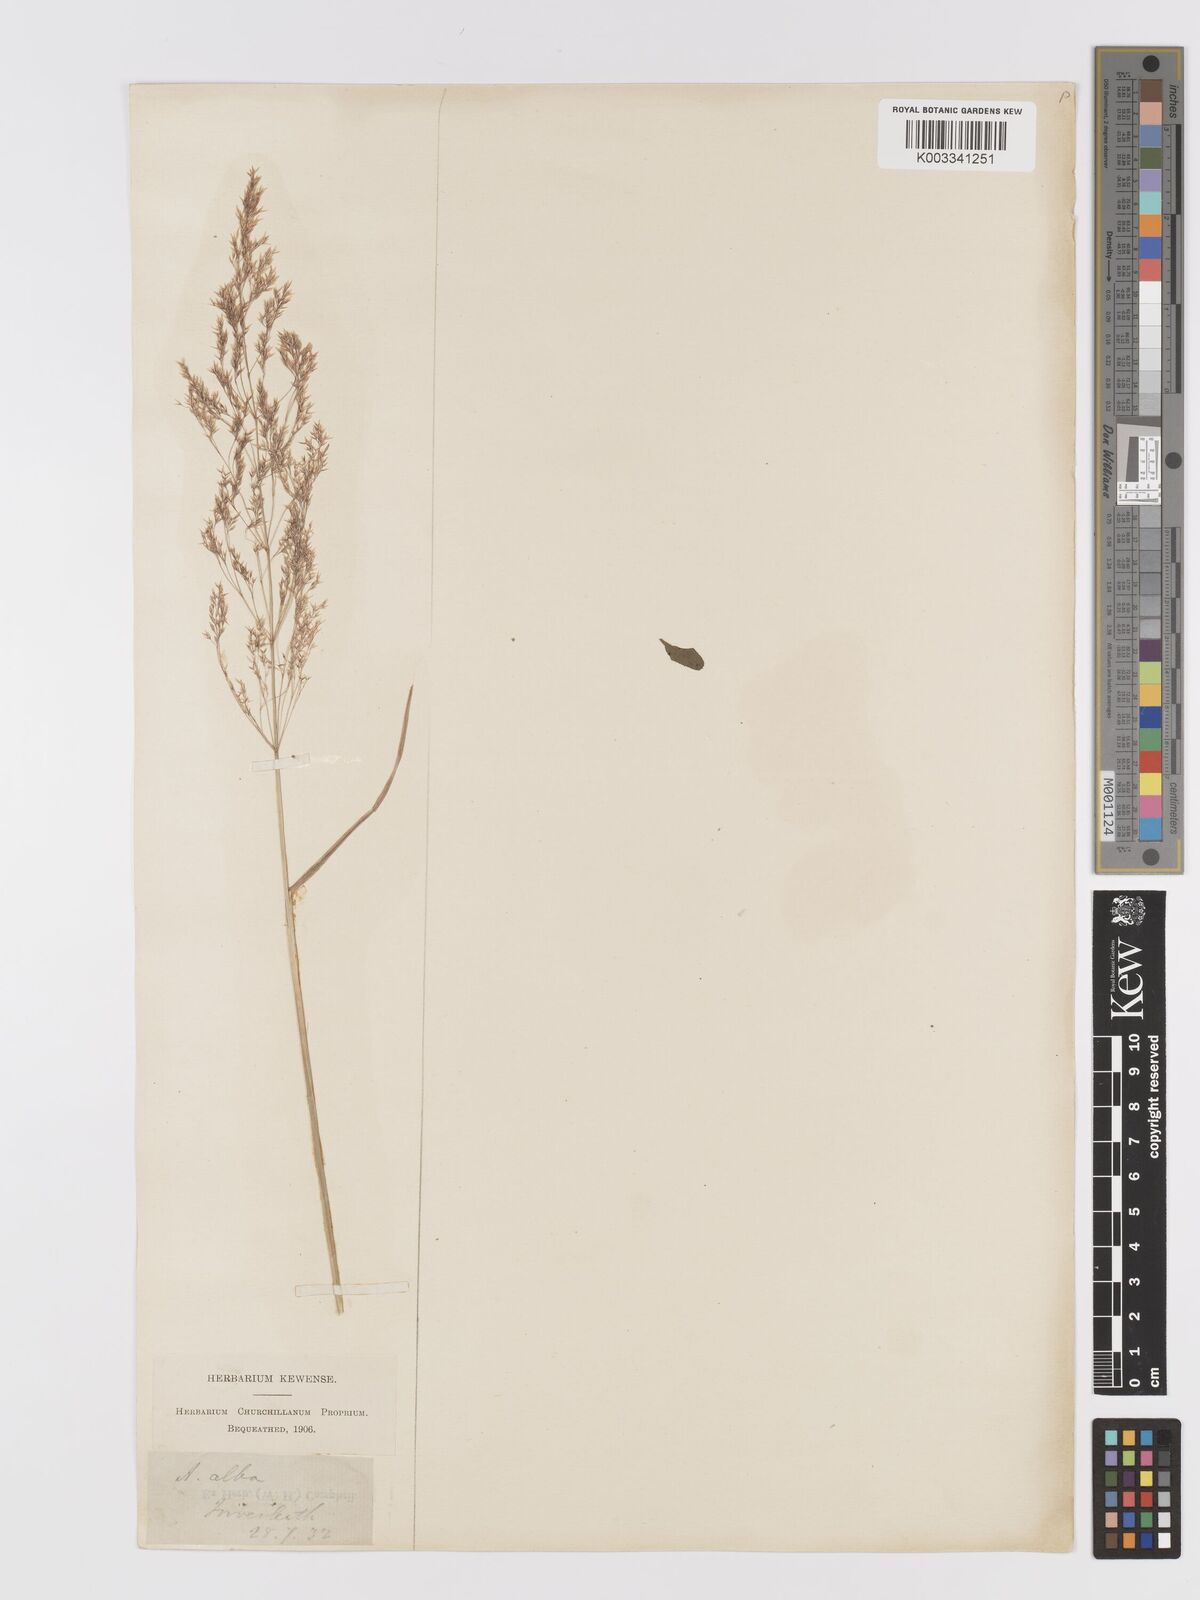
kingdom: Plantae
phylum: Tracheophyta
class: Liliopsida
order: Poales
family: Poaceae
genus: Agrostis
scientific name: Agrostis gigantea
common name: Black bent
